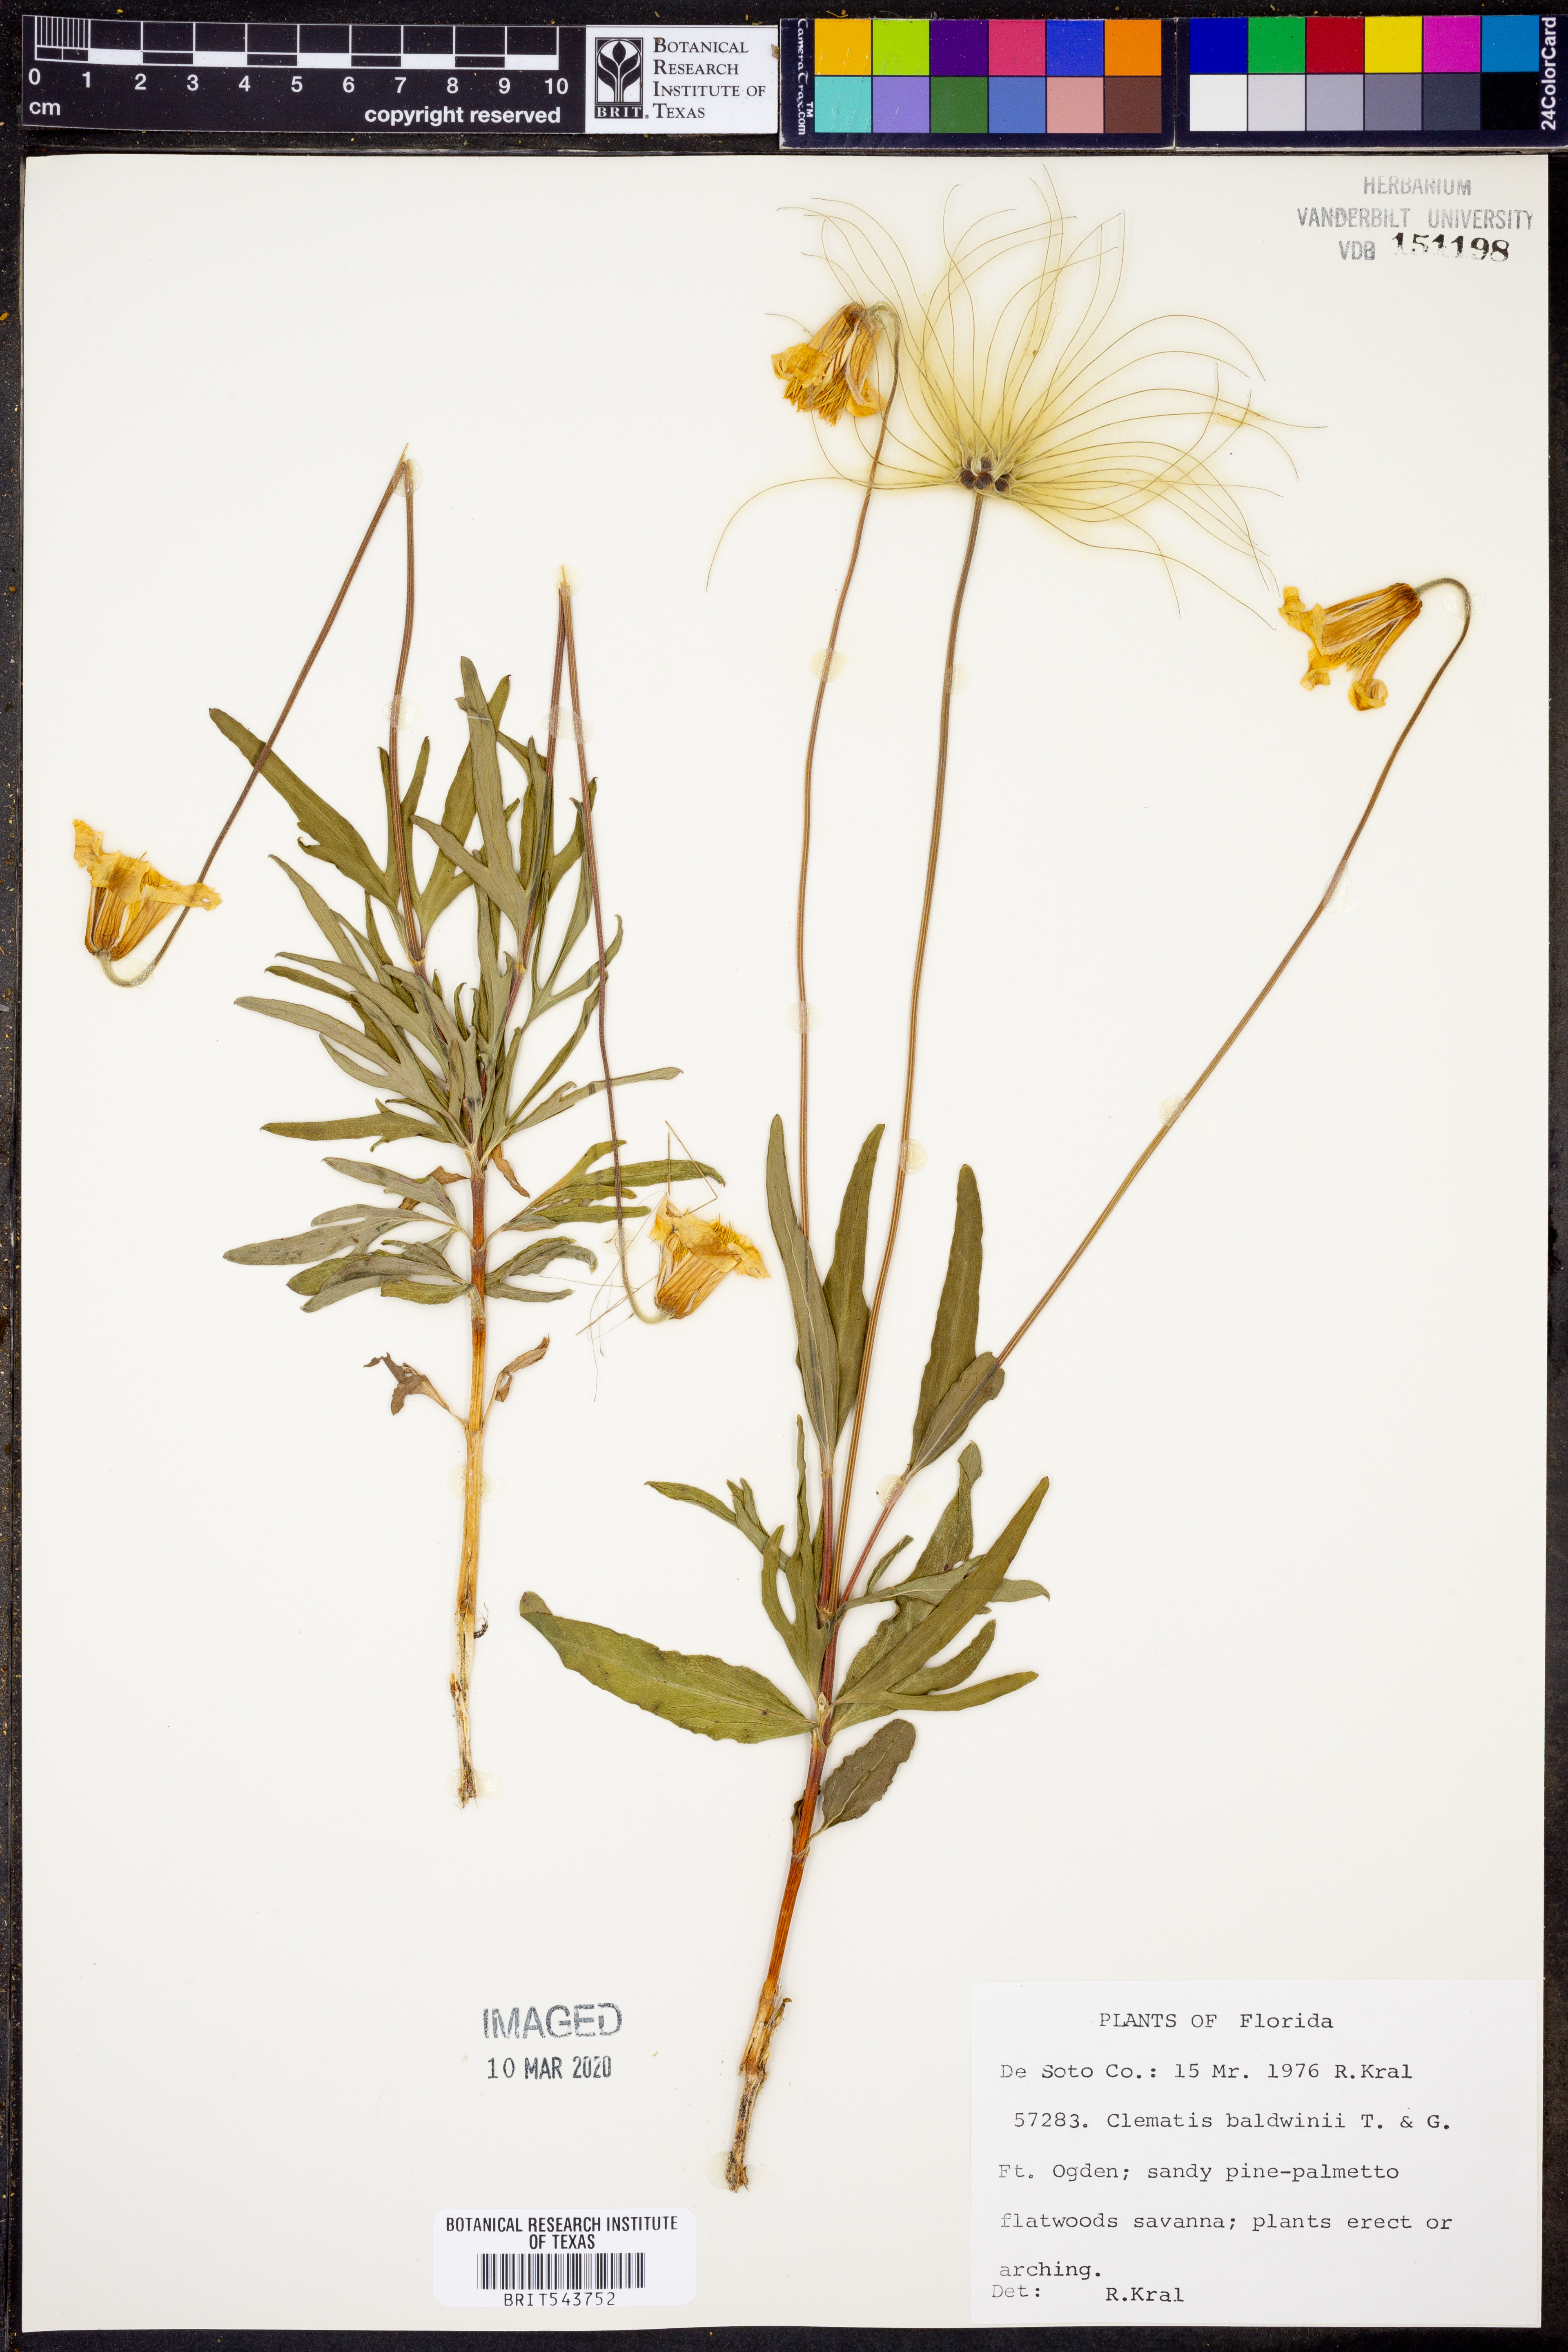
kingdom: Plantae
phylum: Tracheophyta
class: Magnoliopsida
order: Ranunculales
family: Ranunculaceae
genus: Clematis
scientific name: Clematis baldwinii
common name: Pine-hyacinth
